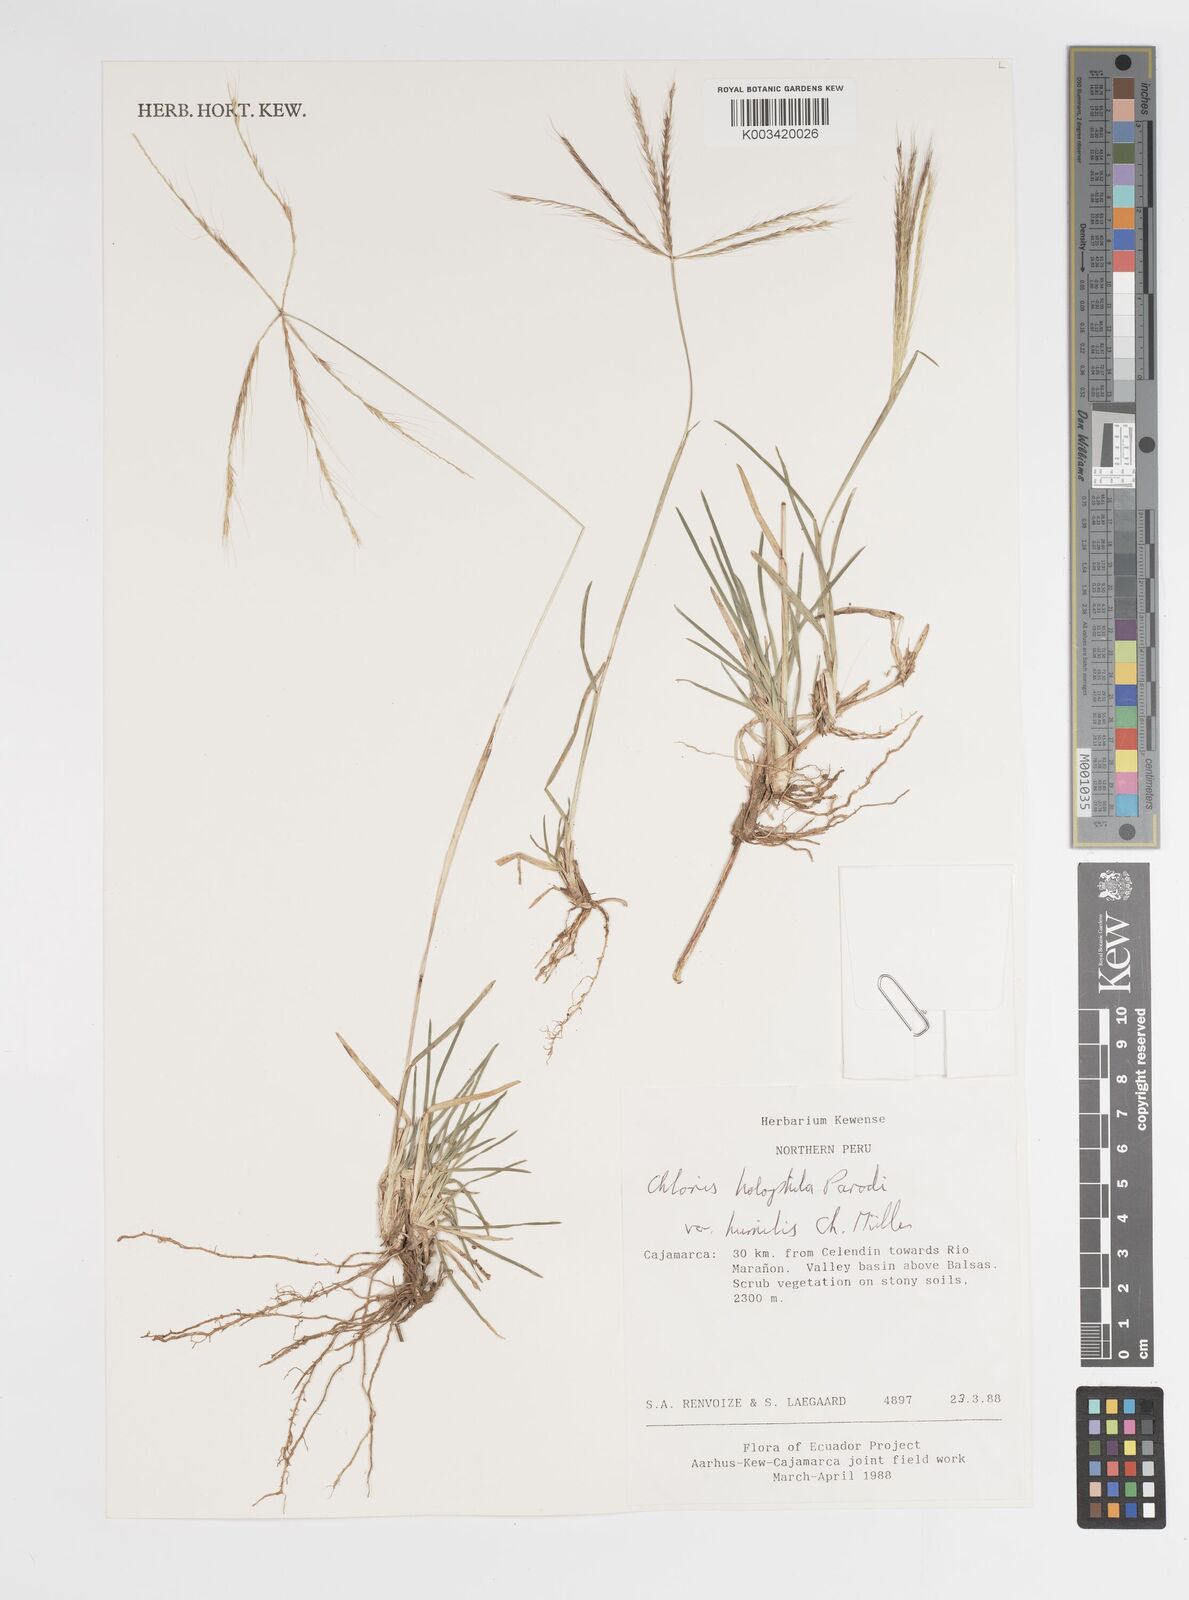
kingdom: Plantae
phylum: Tracheophyta
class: Liliopsida
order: Poales
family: Poaceae
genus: Chloris
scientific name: Chloris halophila
